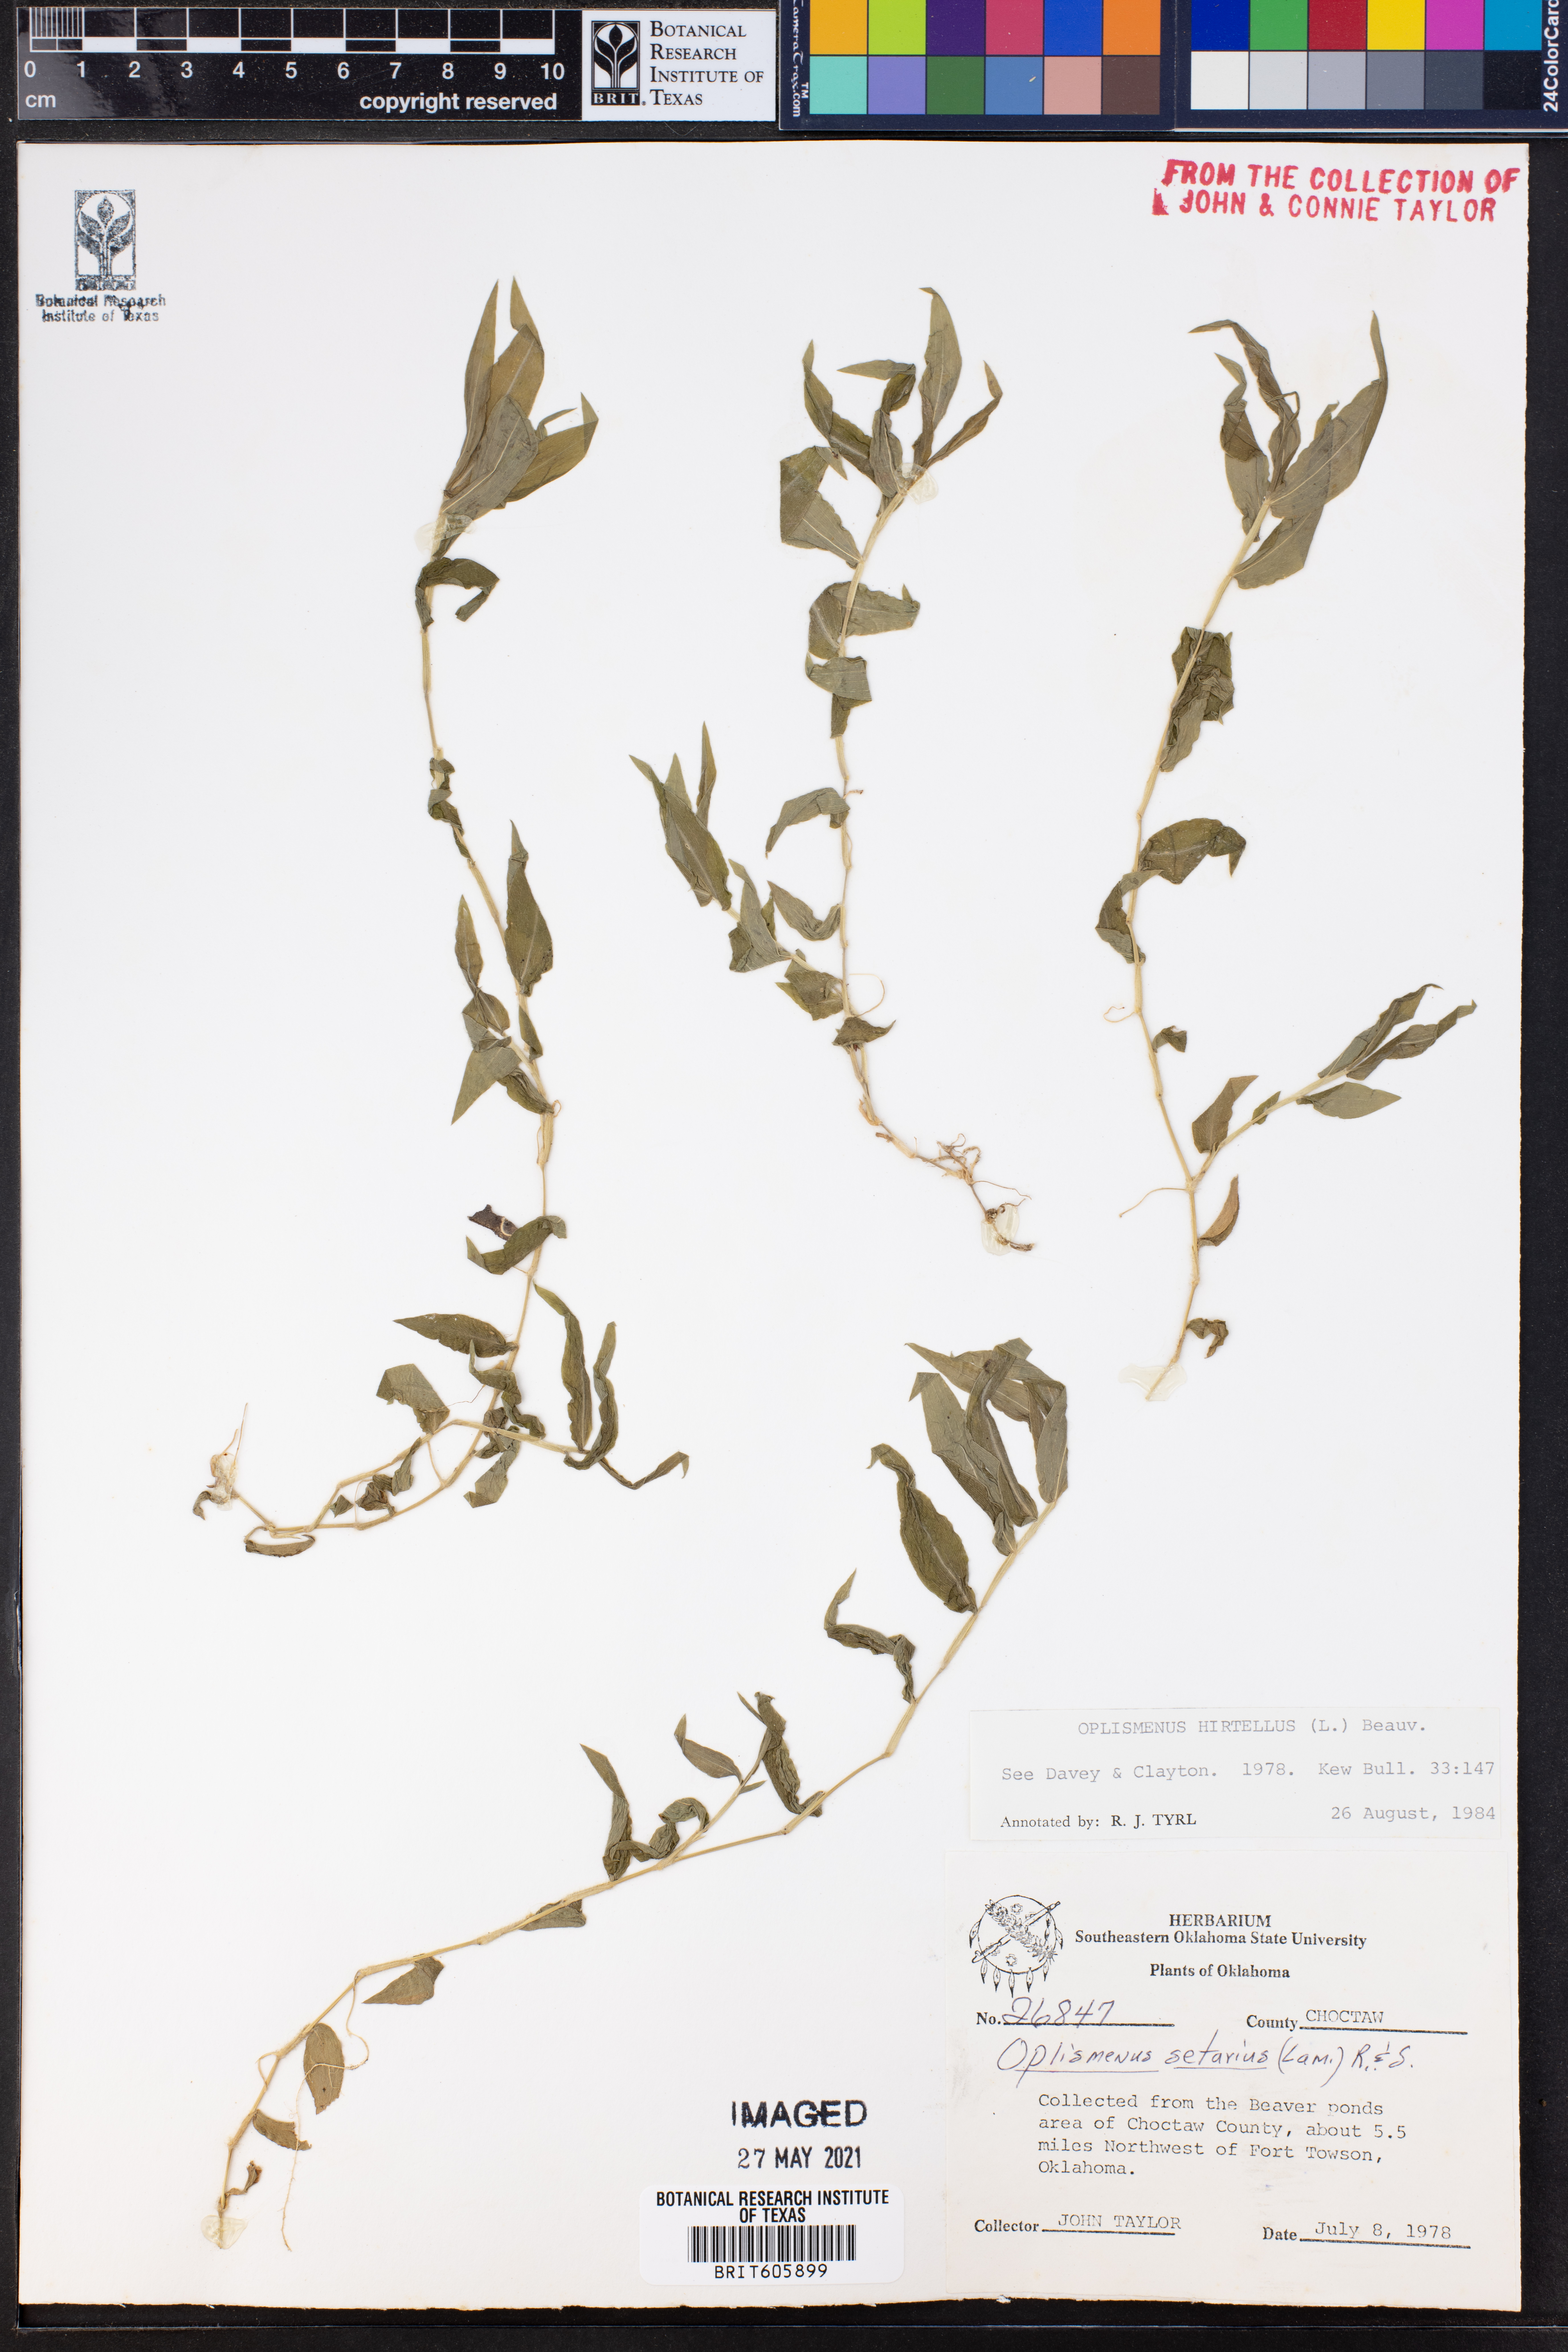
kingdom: Plantae
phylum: Tracheophyta
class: Liliopsida
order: Poales
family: Poaceae
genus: Oplismenus
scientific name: Oplismenus hirtellus
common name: Basketgrass
